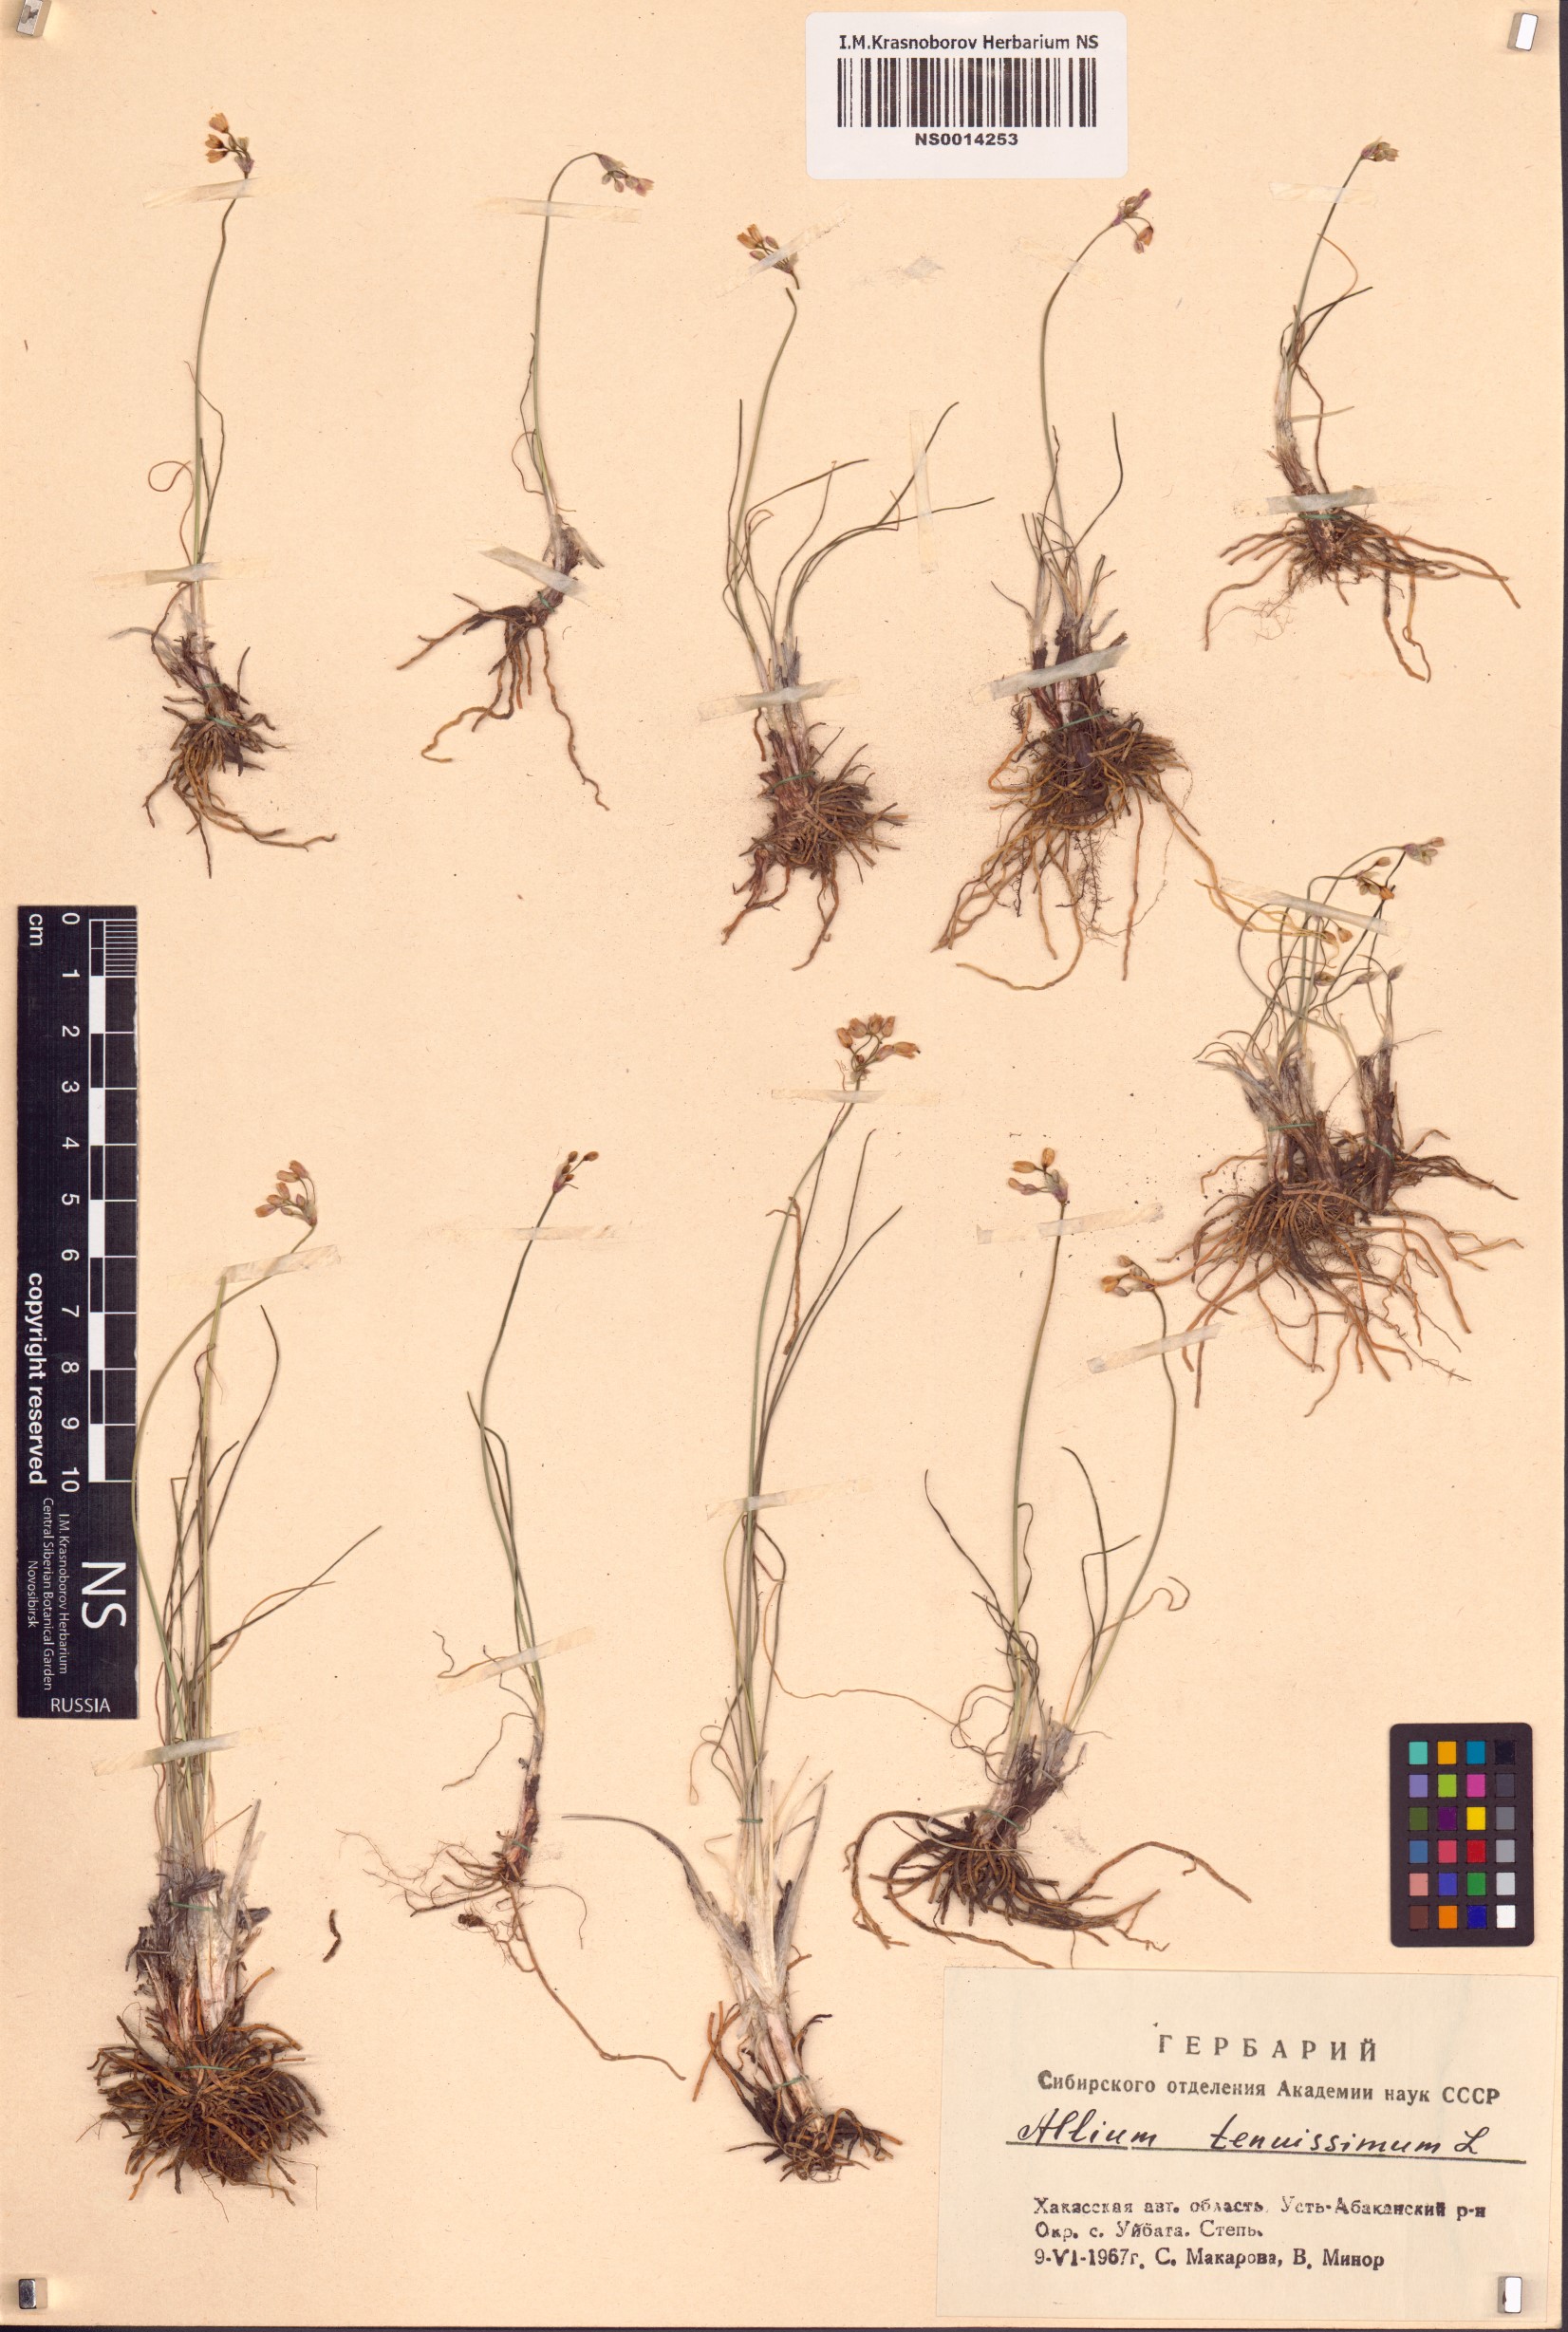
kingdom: Plantae
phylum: Tracheophyta
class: Liliopsida
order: Asparagales
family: Amaryllidaceae
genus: Allium
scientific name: Allium tenuissimum
